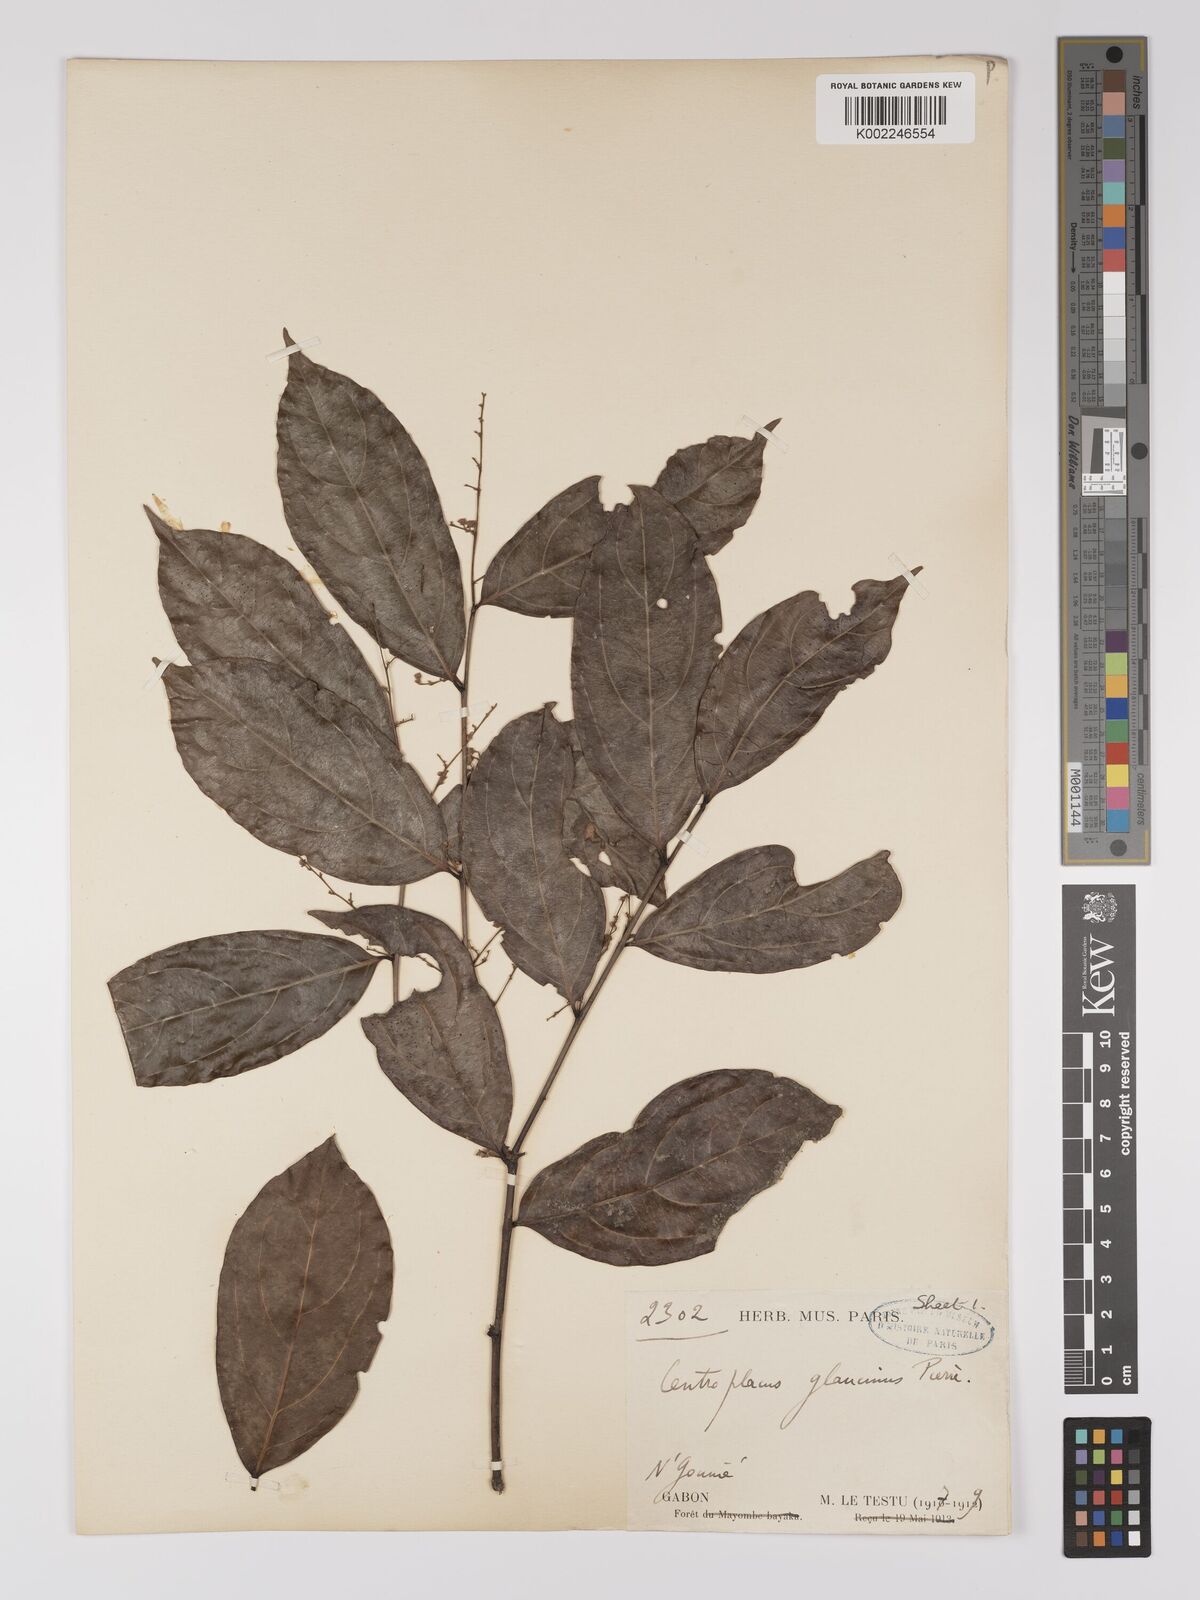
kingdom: Plantae
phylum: Tracheophyta
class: Magnoliopsida
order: Malpighiales
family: Centroplacaceae
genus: Centroplacus
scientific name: Centroplacus glaucinus
